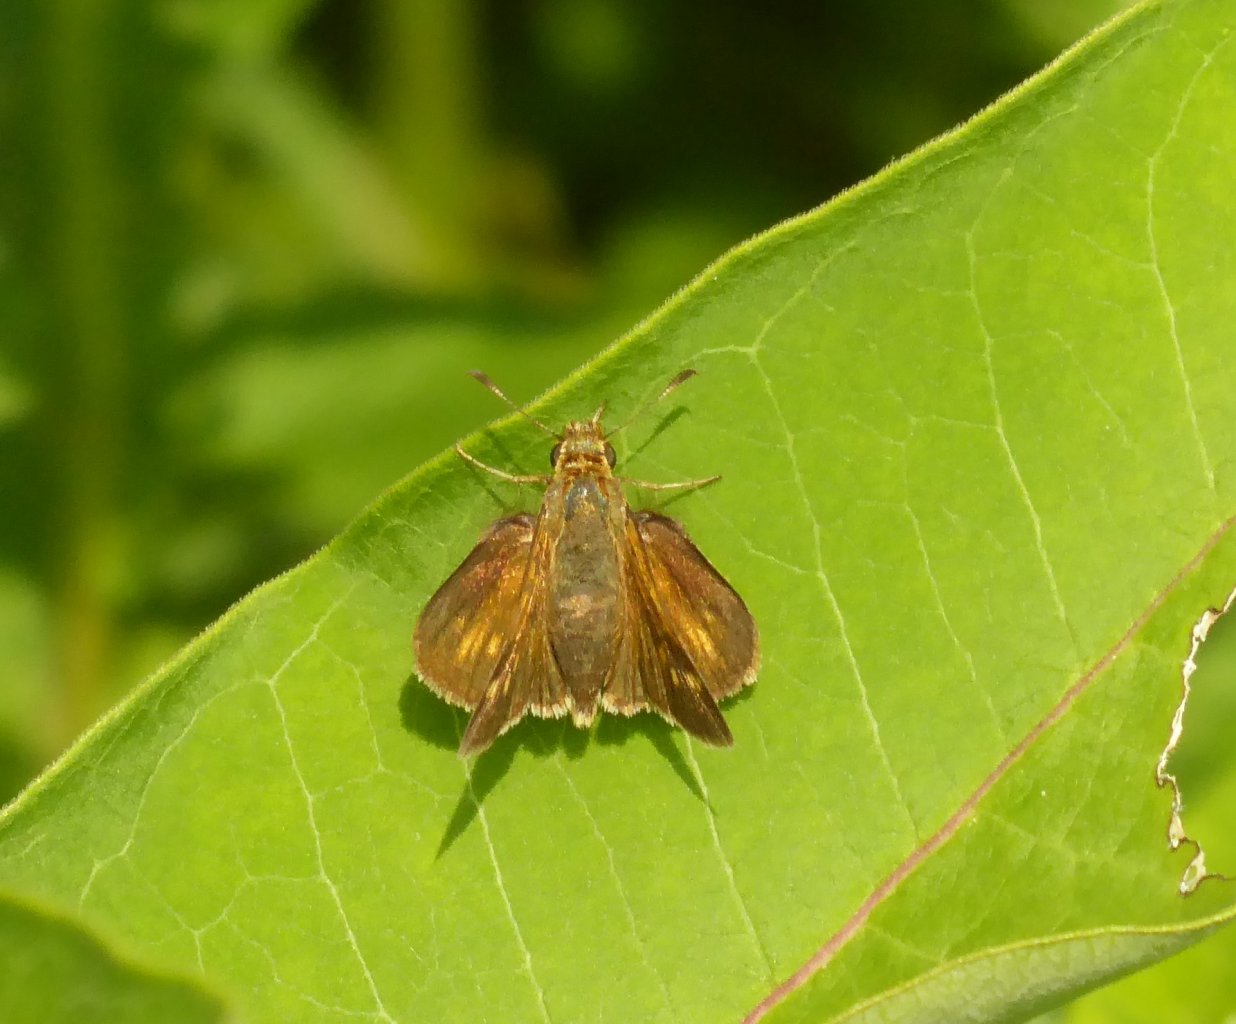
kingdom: Animalia
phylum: Arthropoda
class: Insecta
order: Lepidoptera
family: Hesperiidae
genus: Polites
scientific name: Polites coras
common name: Peck's Skipper
